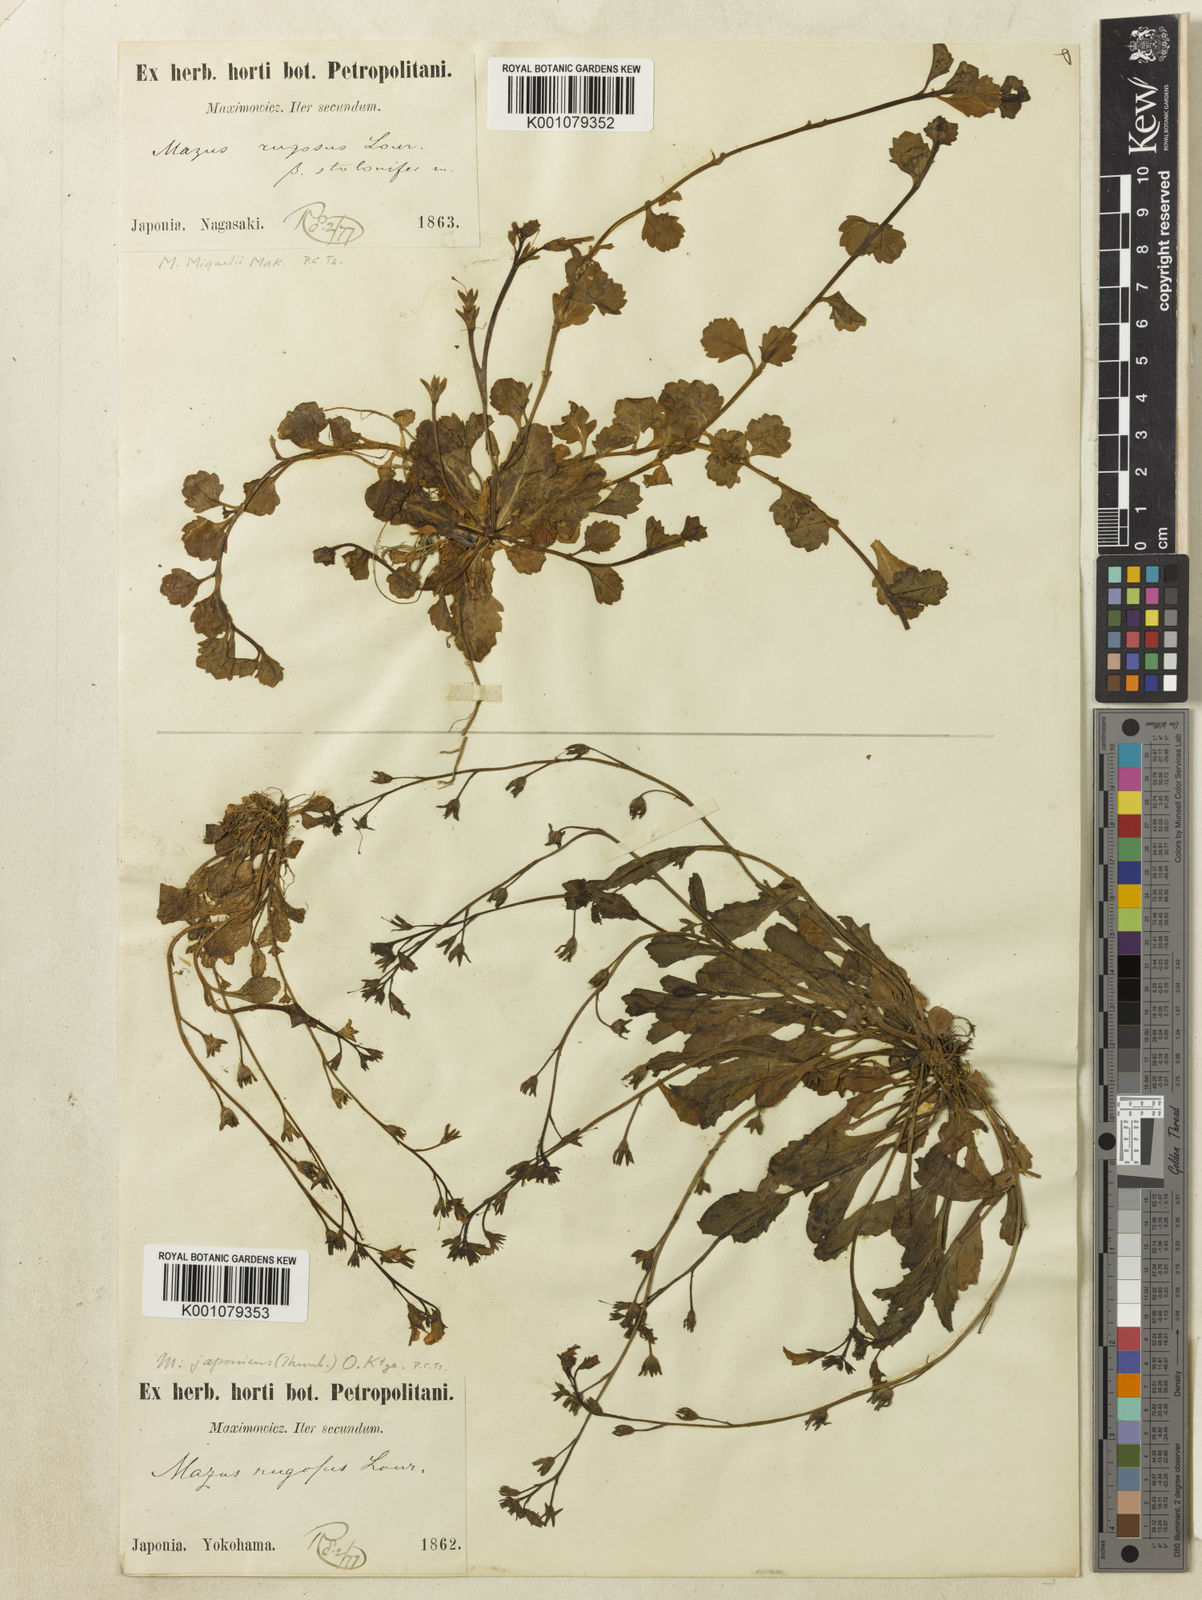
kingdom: Plantae
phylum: Tracheophyta
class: Magnoliopsida
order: Lamiales
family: Mazaceae
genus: Mazus
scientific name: Mazus pumilus
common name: Japanese mazus
